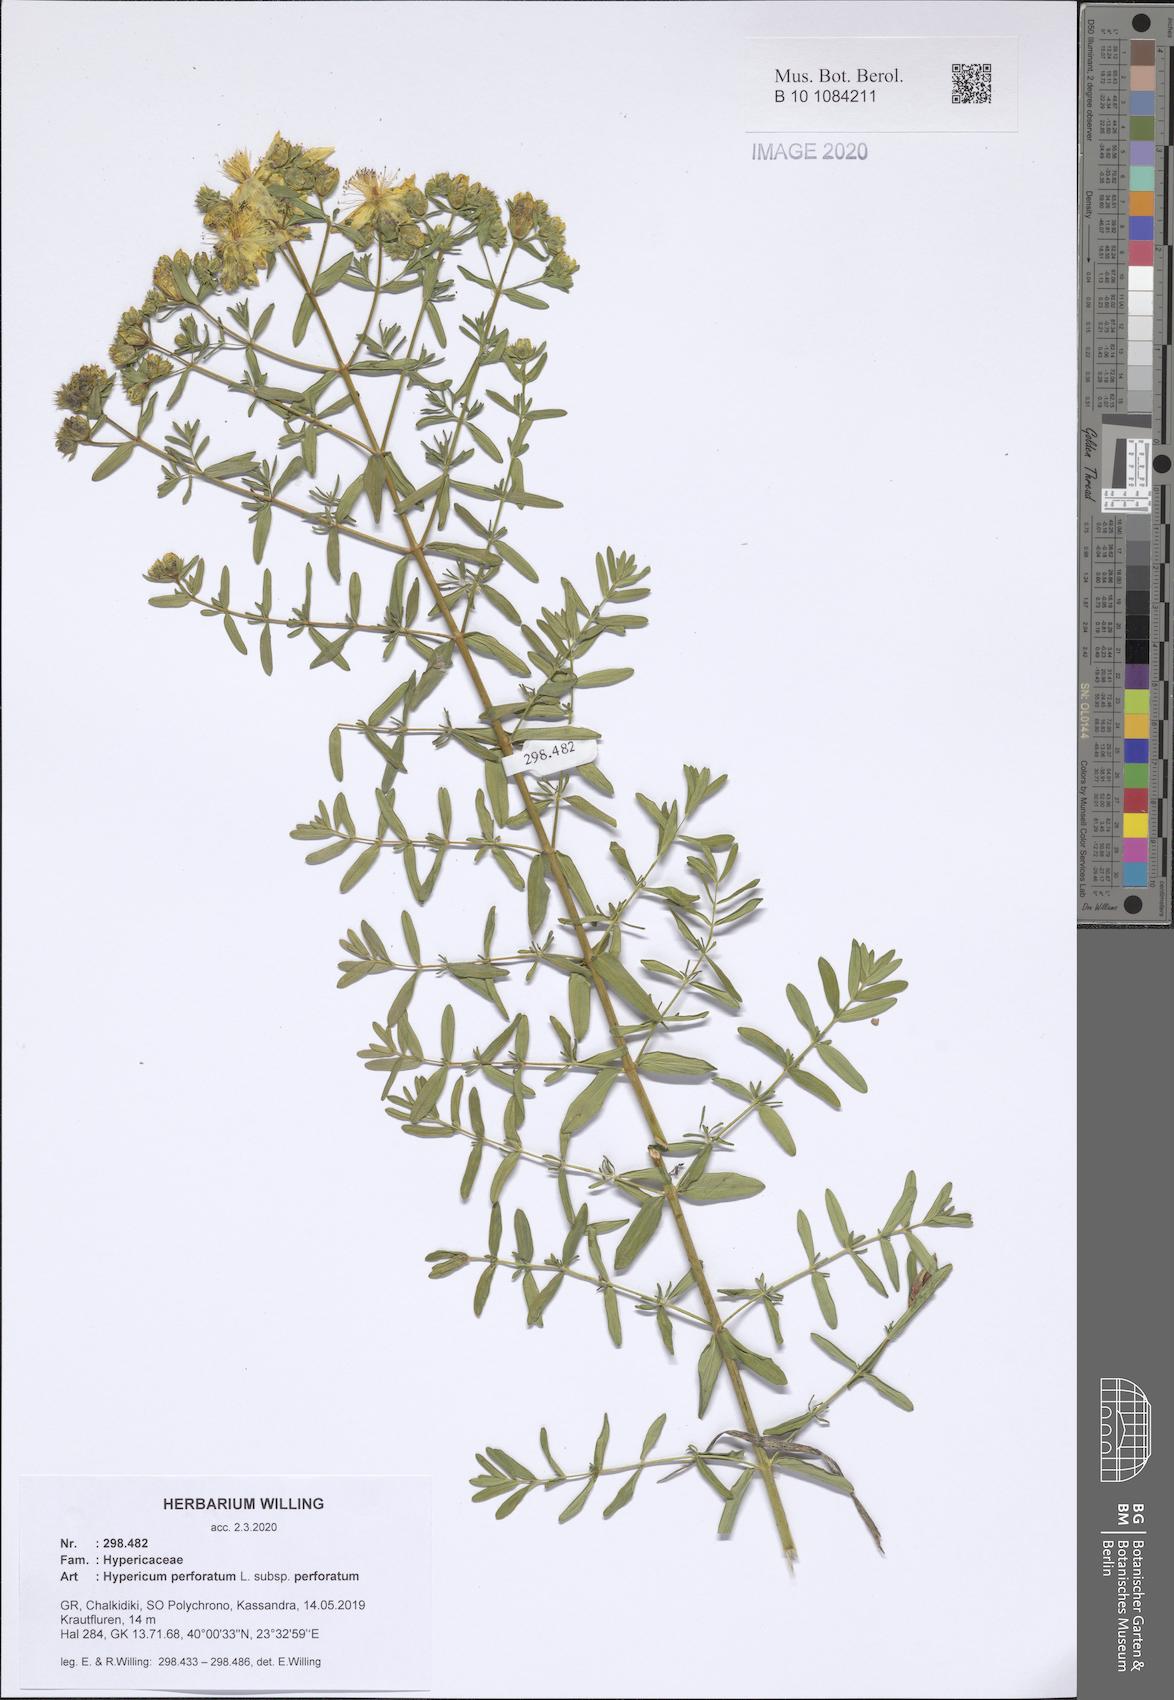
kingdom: Plantae
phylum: Tracheophyta
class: Magnoliopsida
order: Malpighiales
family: Hypericaceae
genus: Hypericum
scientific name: Hypericum perforatum
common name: Common st. johnswort
